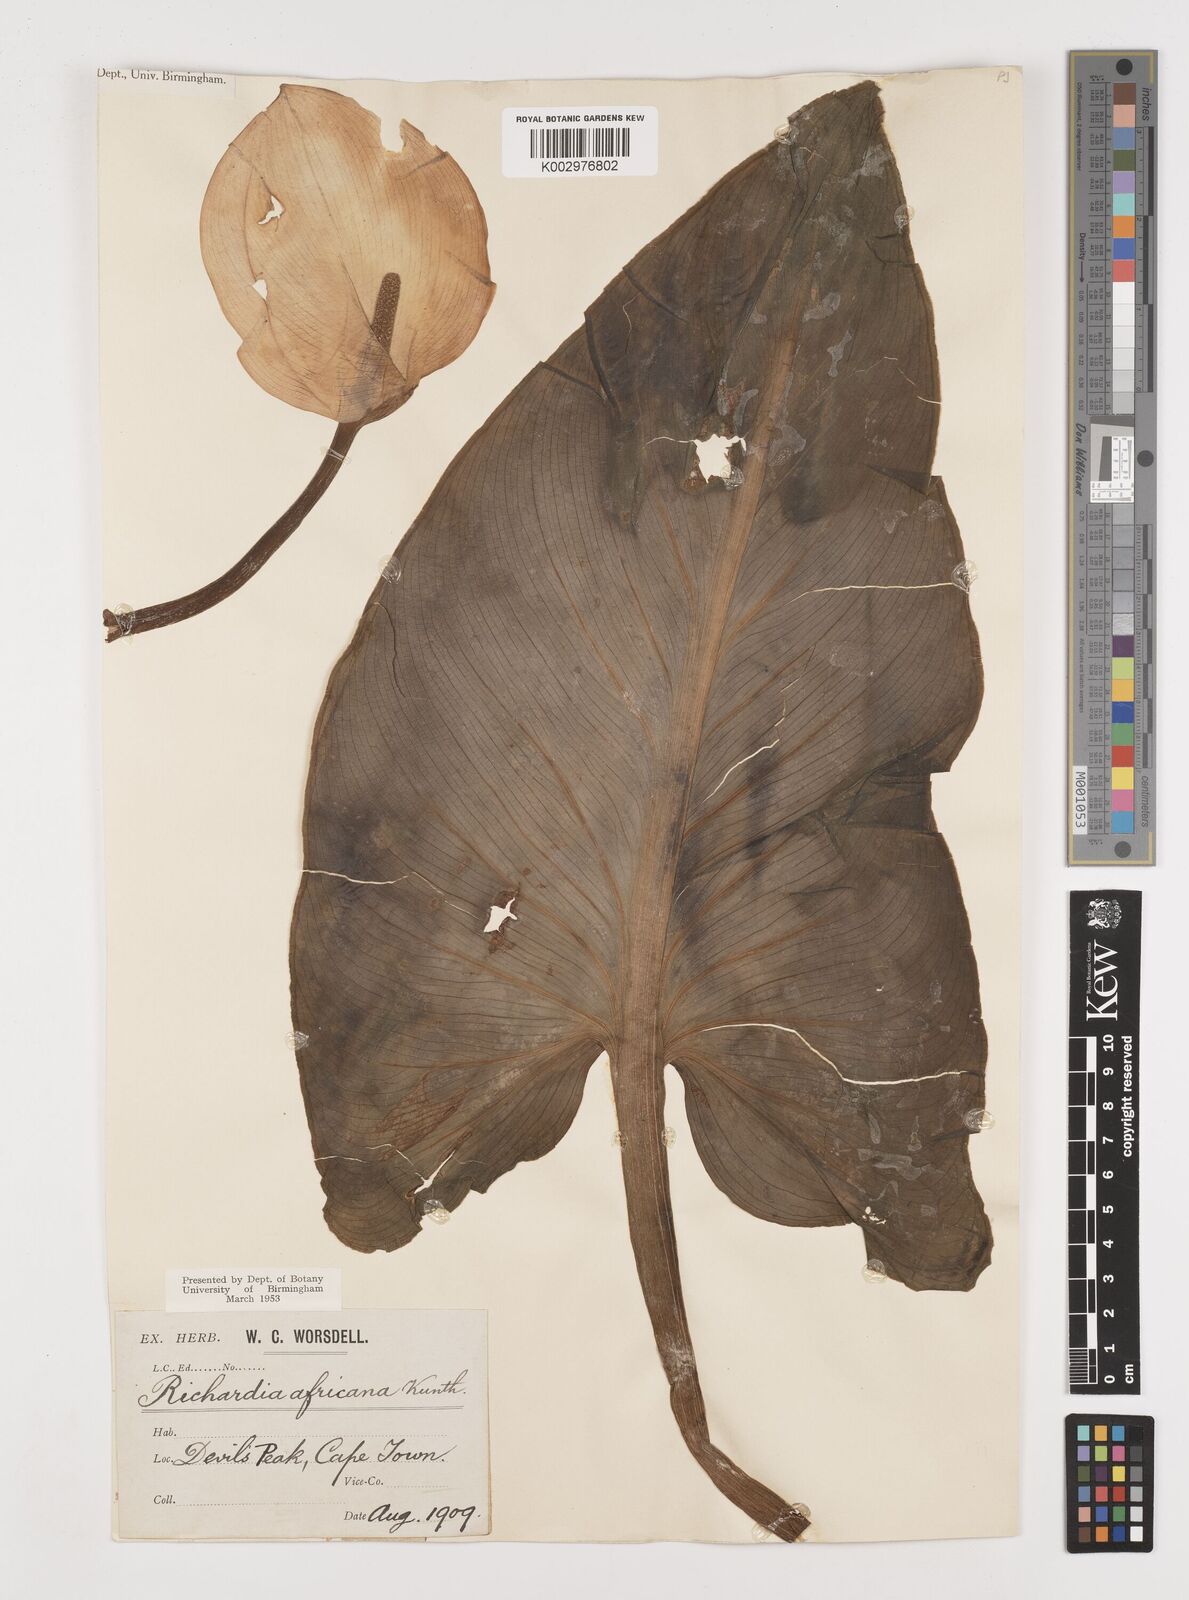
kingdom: Plantae
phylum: Tracheophyta
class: Liliopsida
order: Alismatales
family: Araceae
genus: Zantedeschia
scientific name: Zantedeschia aethiopica
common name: Altar-lily
